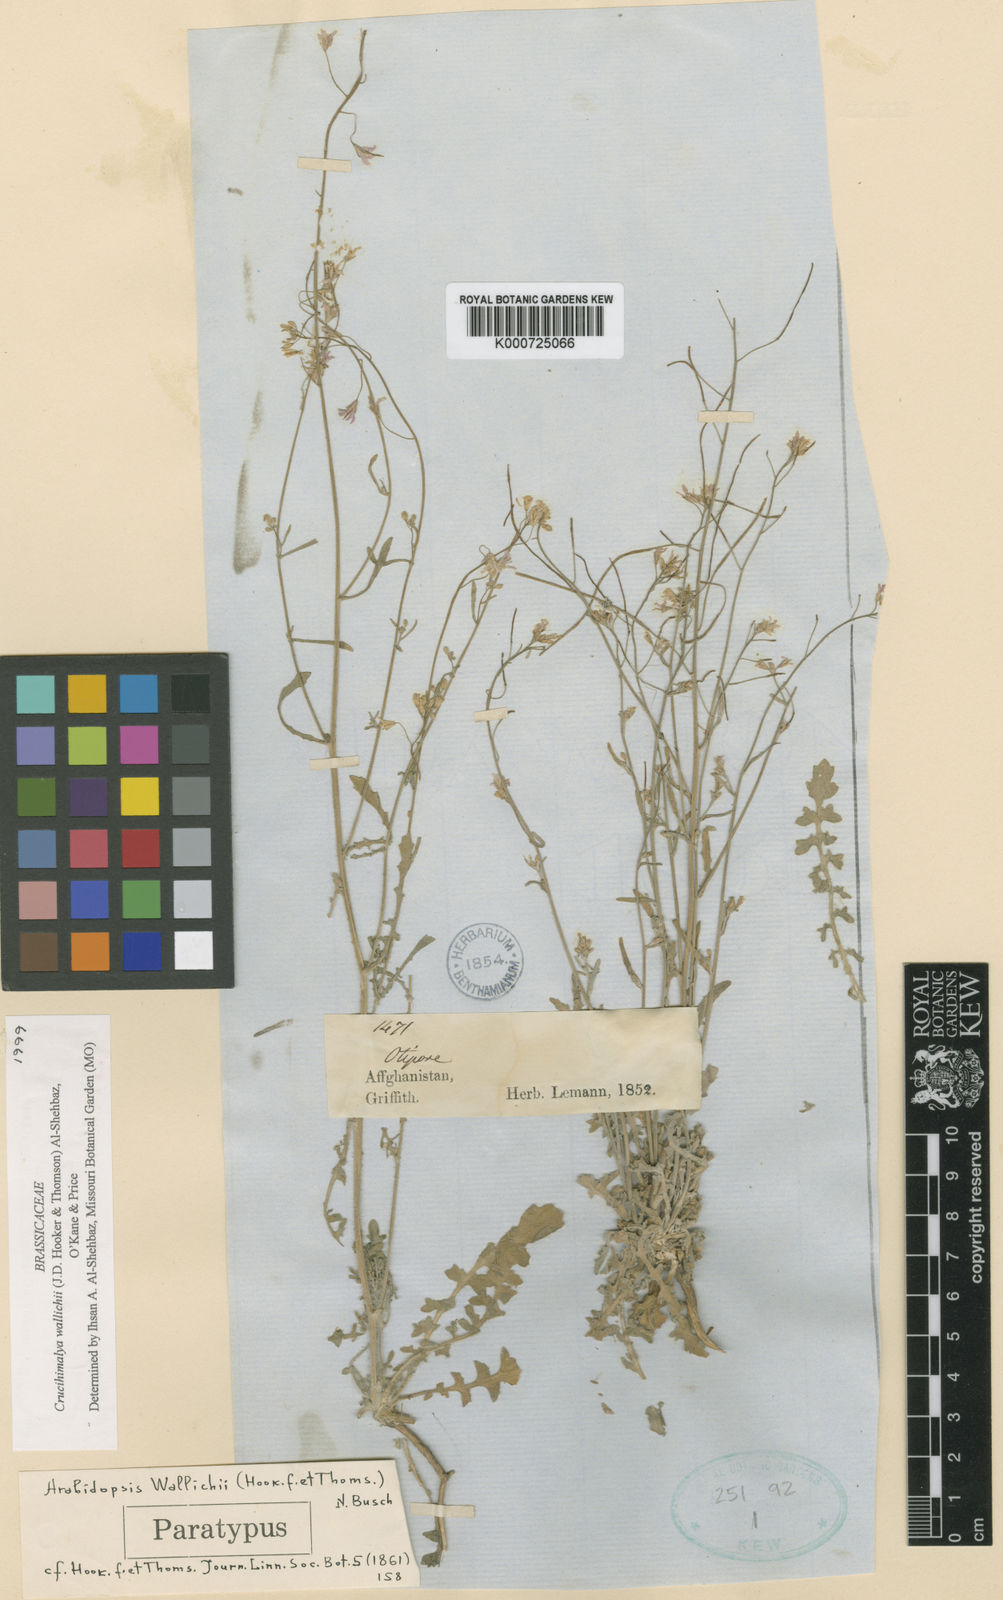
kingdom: Plantae
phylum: Tracheophyta
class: Magnoliopsida
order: Brassicales
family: Brassicaceae
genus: Crucihimalaya
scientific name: Crucihimalaya
